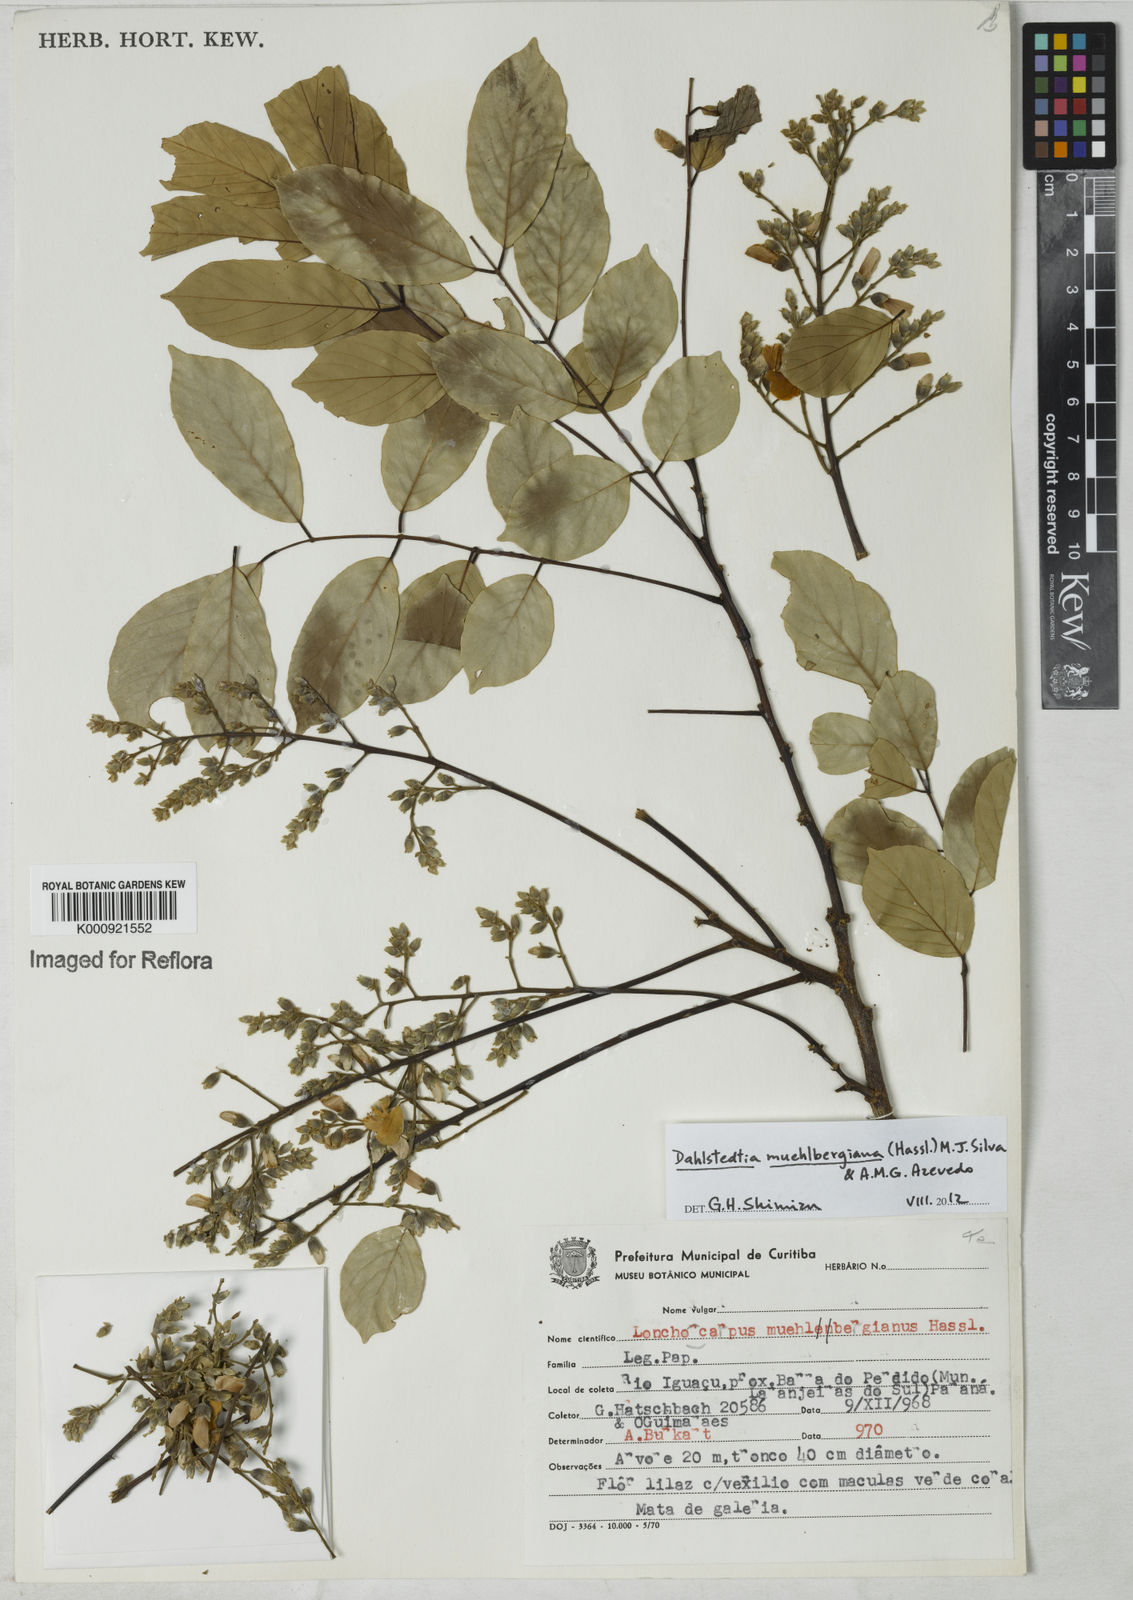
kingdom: Plantae
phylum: Tracheophyta
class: Magnoliopsida
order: Fabales
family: Fabaceae
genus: Dahlstedtia
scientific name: Dahlstedtia muehlbergiana
